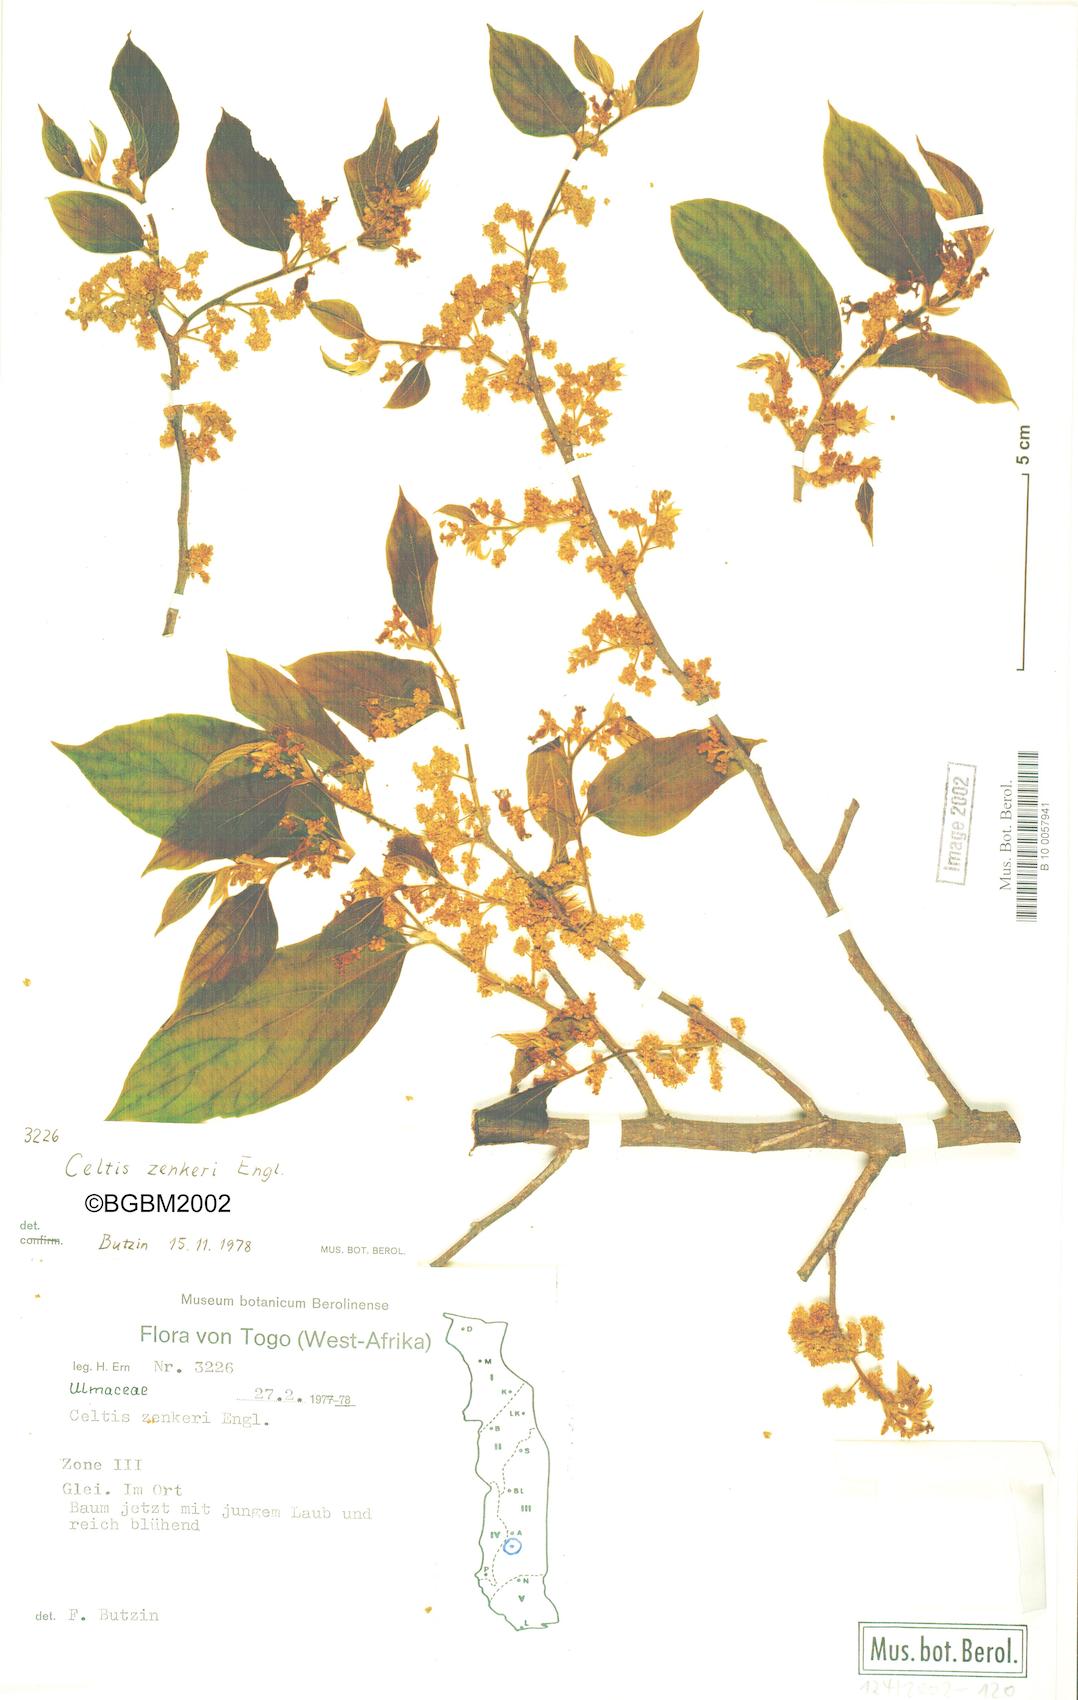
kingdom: Plantae
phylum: Tracheophyta
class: Magnoliopsida
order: Rosales
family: Cannabaceae
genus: Celtis
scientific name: Celtis zenkeri
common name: African celtis
